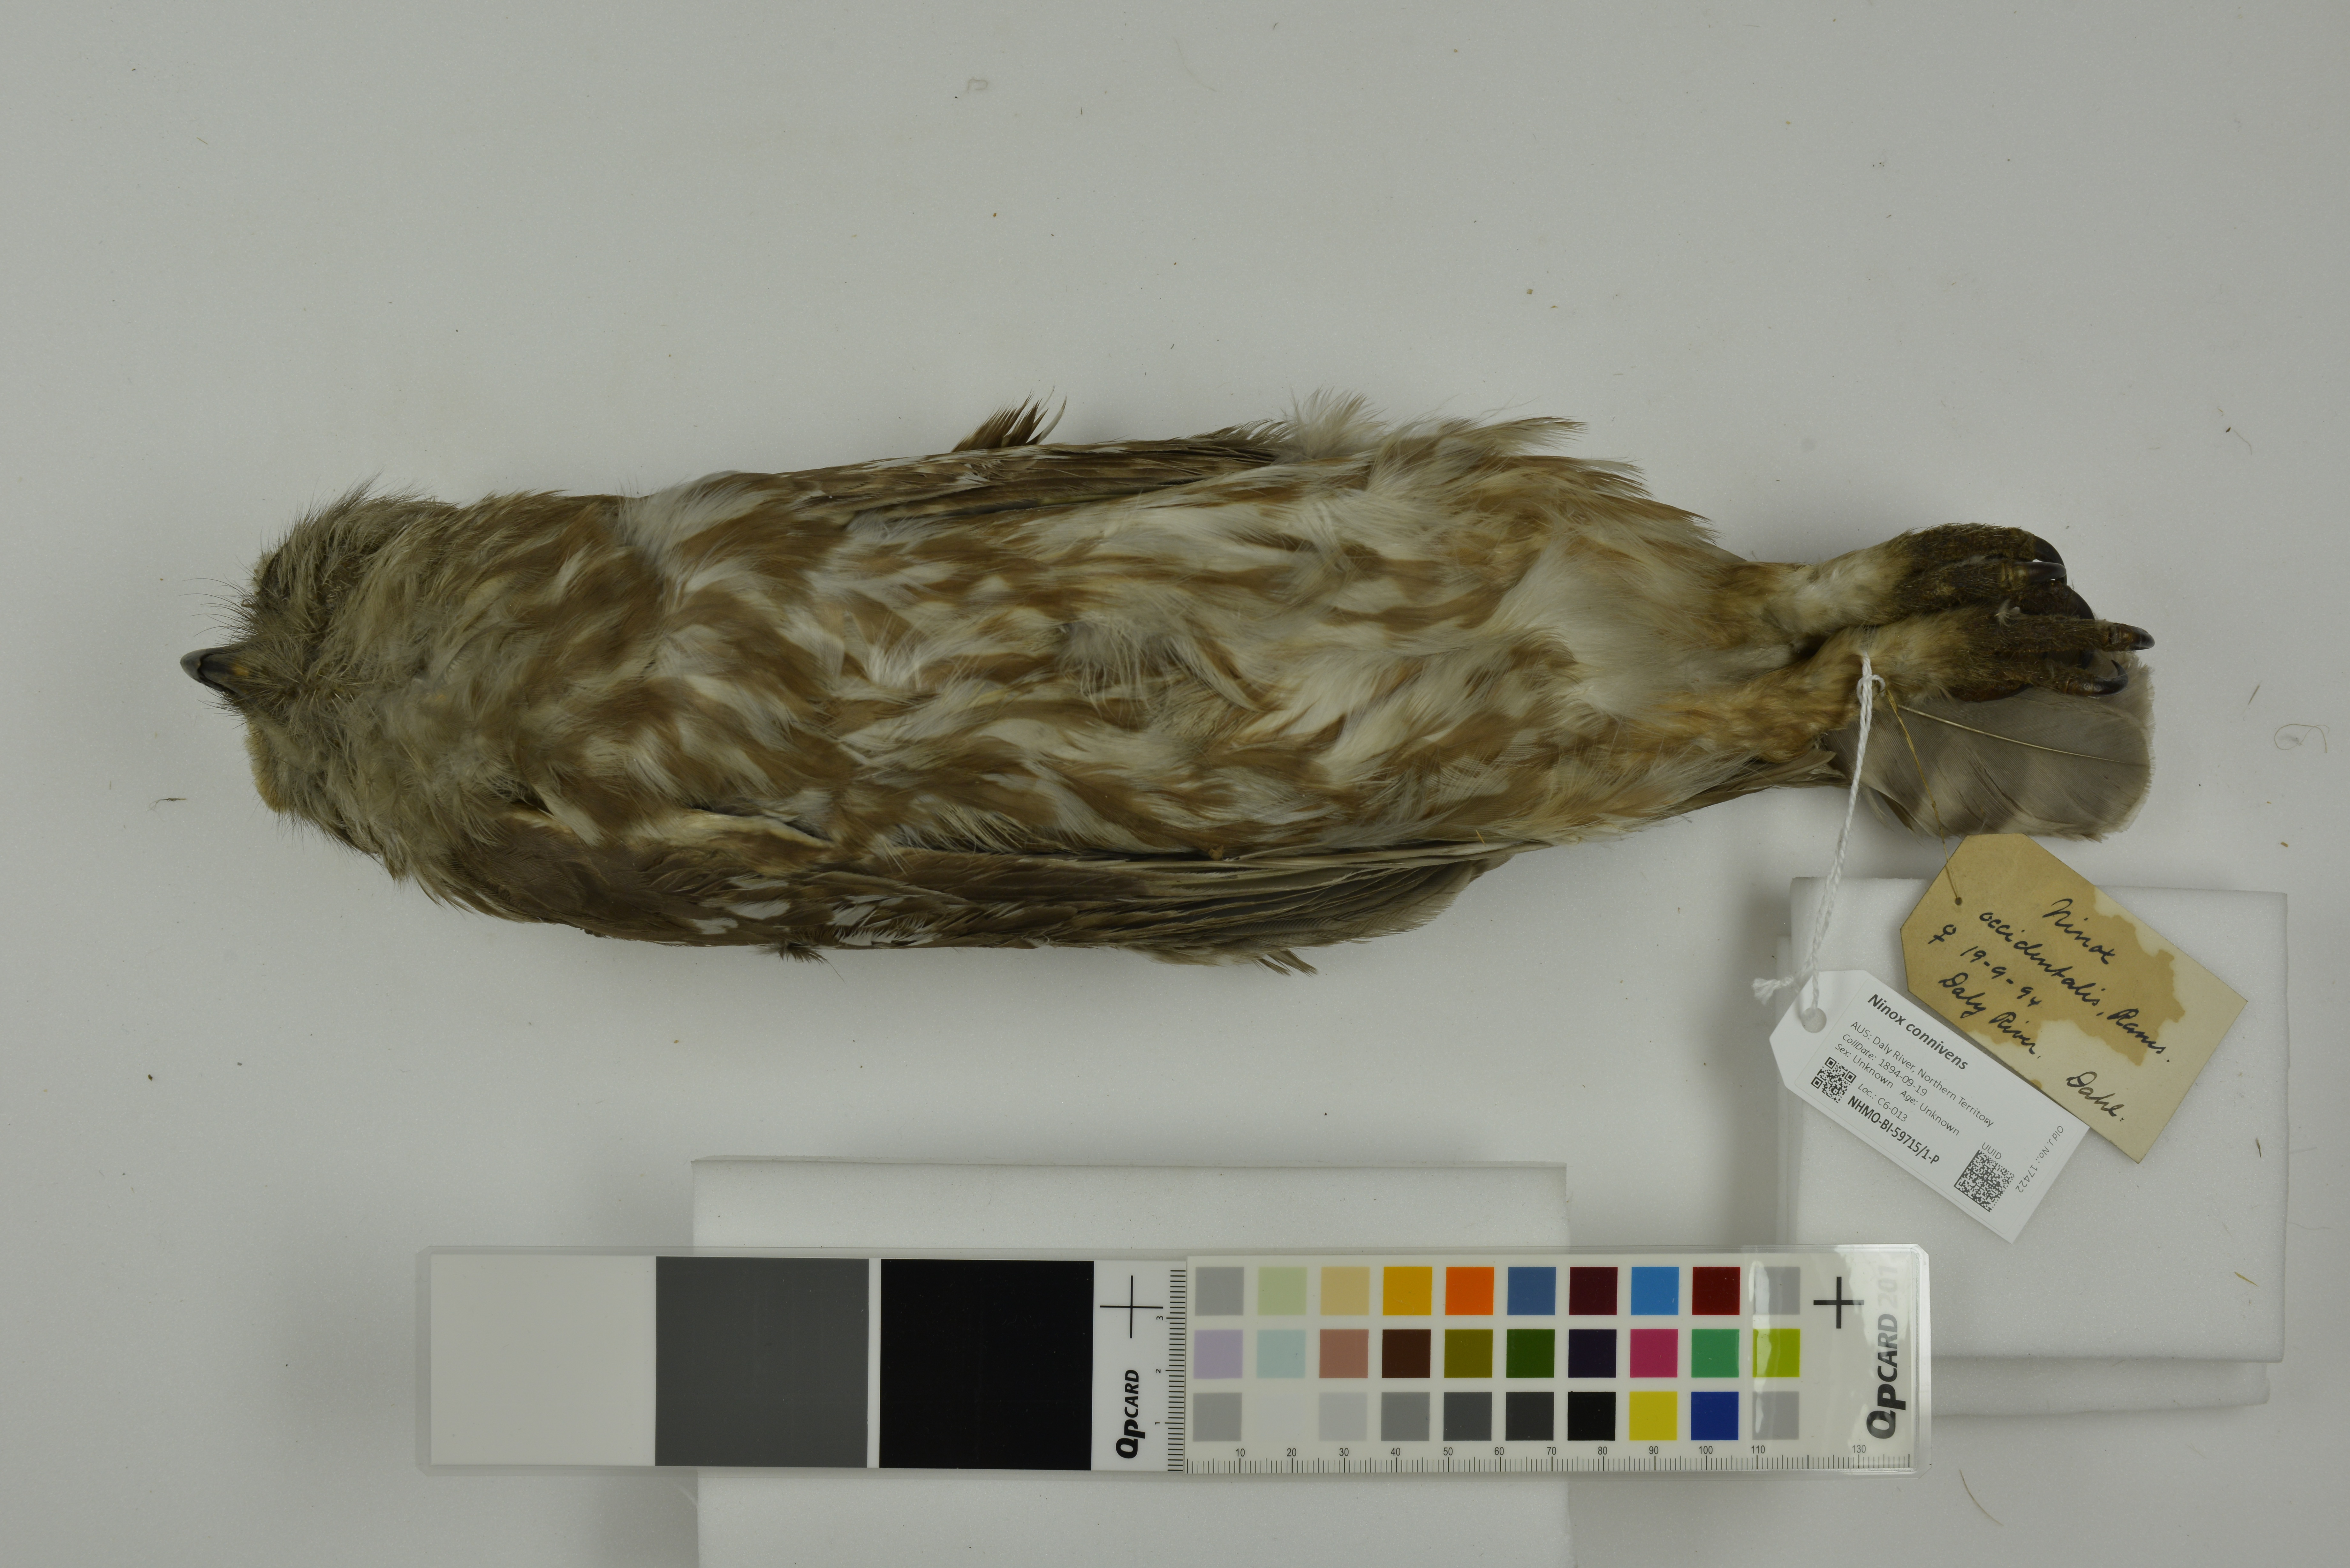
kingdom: Animalia
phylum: Chordata
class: Aves
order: Strigiformes
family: Strigidae
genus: Ninox
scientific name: Ninox connivens
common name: Barking owl
